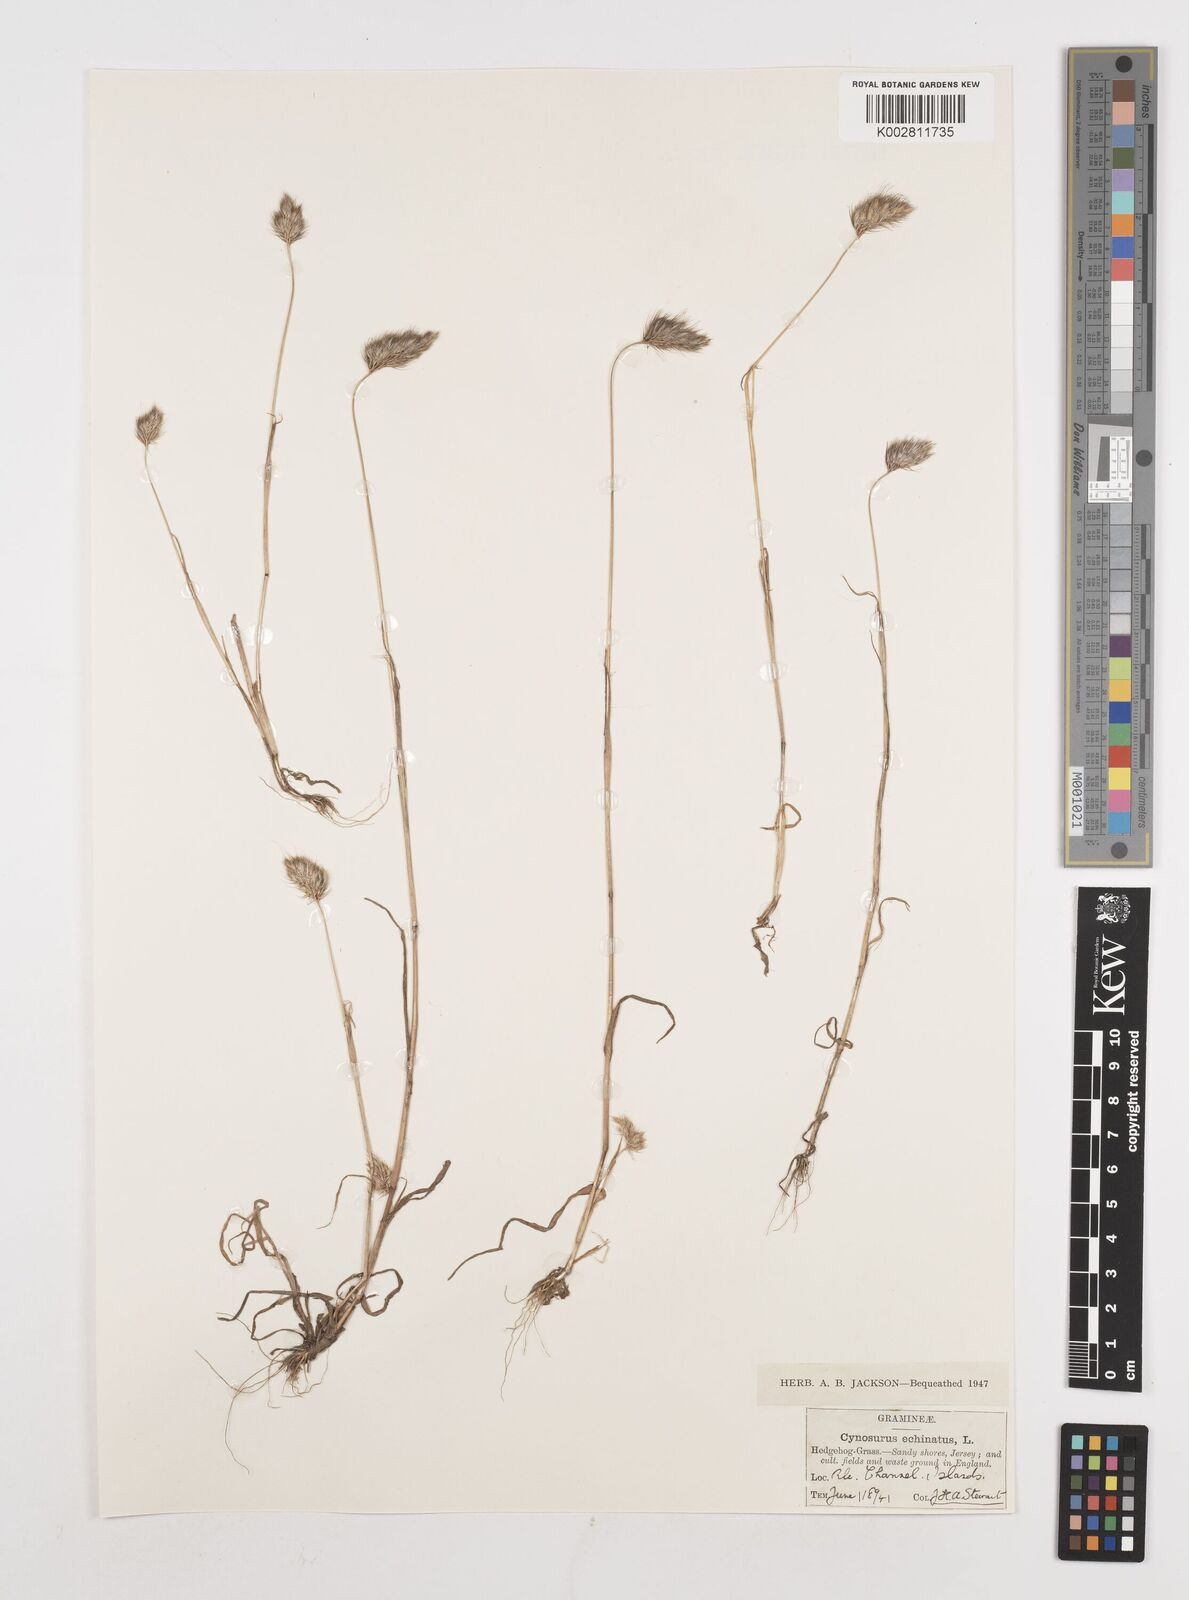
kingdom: Plantae
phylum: Tracheophyta
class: Liliopsida
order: Poales
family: Poaceae
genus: Cynosurus
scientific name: Cynosurus echinatus
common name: Rough dog's-tail
